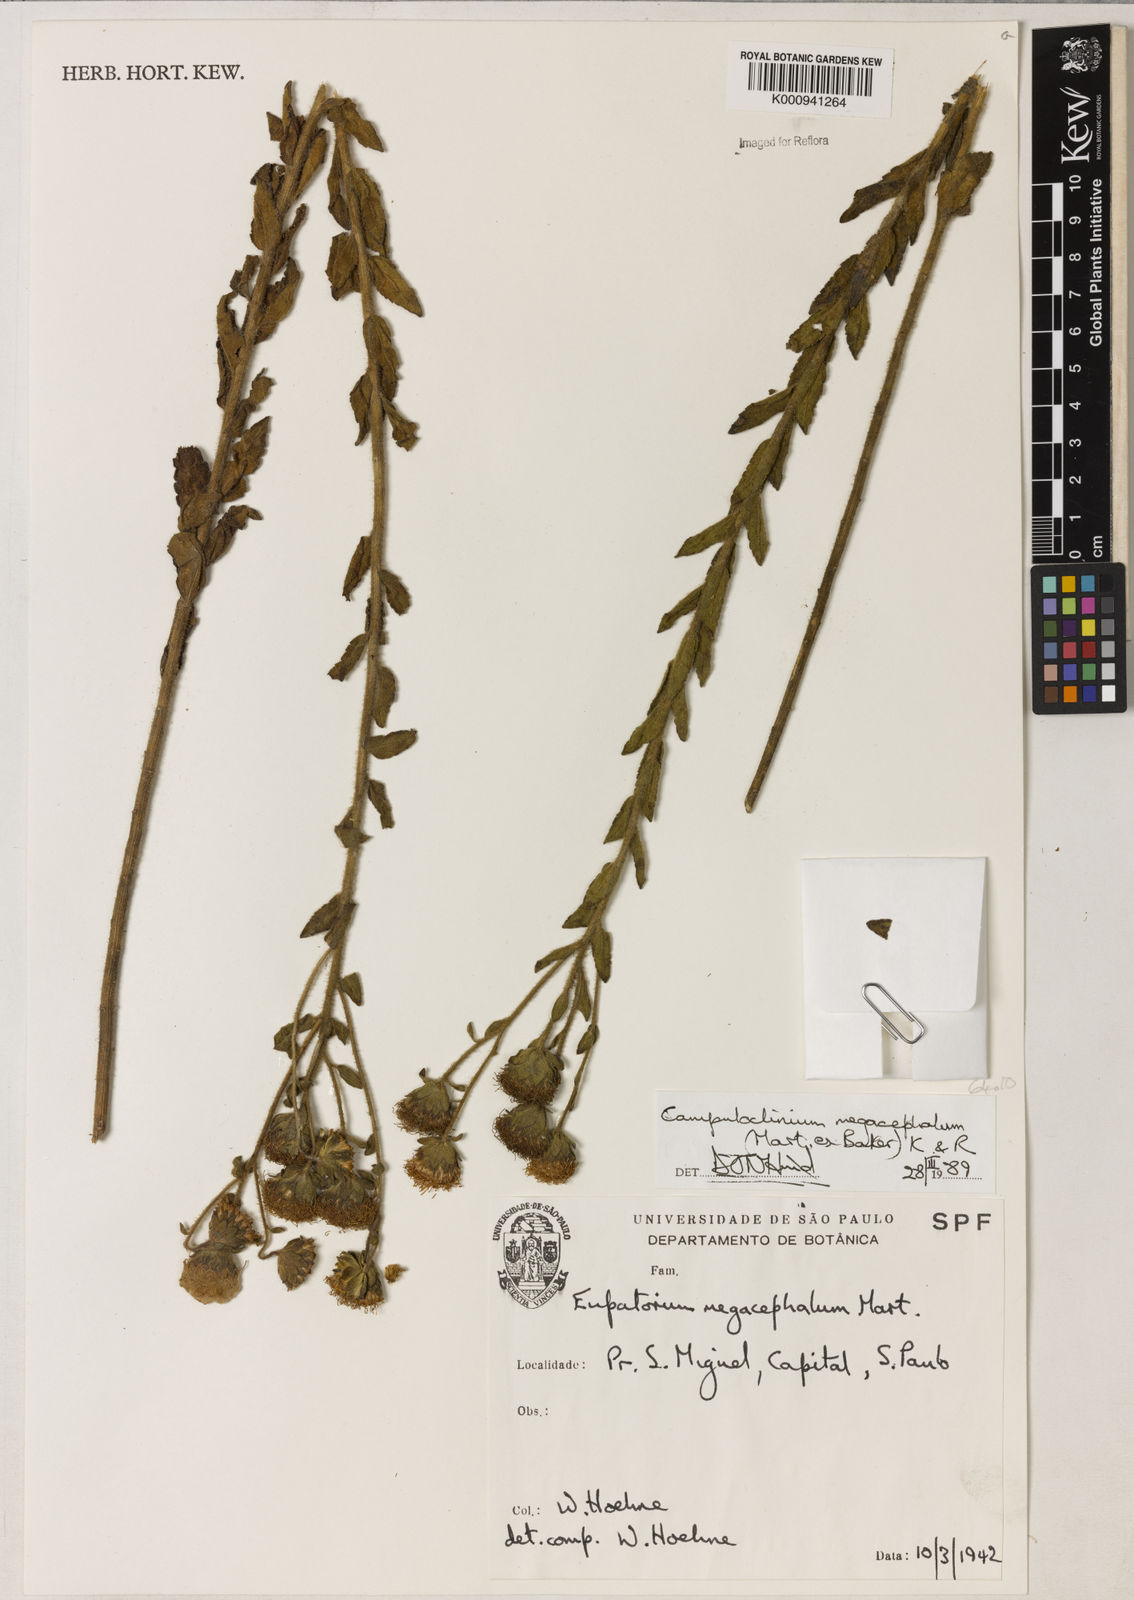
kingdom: Plantae
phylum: Tracheophyta
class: Magnoliopsida
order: Asterales
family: Asteraceae
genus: Campuloclinium
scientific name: Campuloclinium megacephalum
